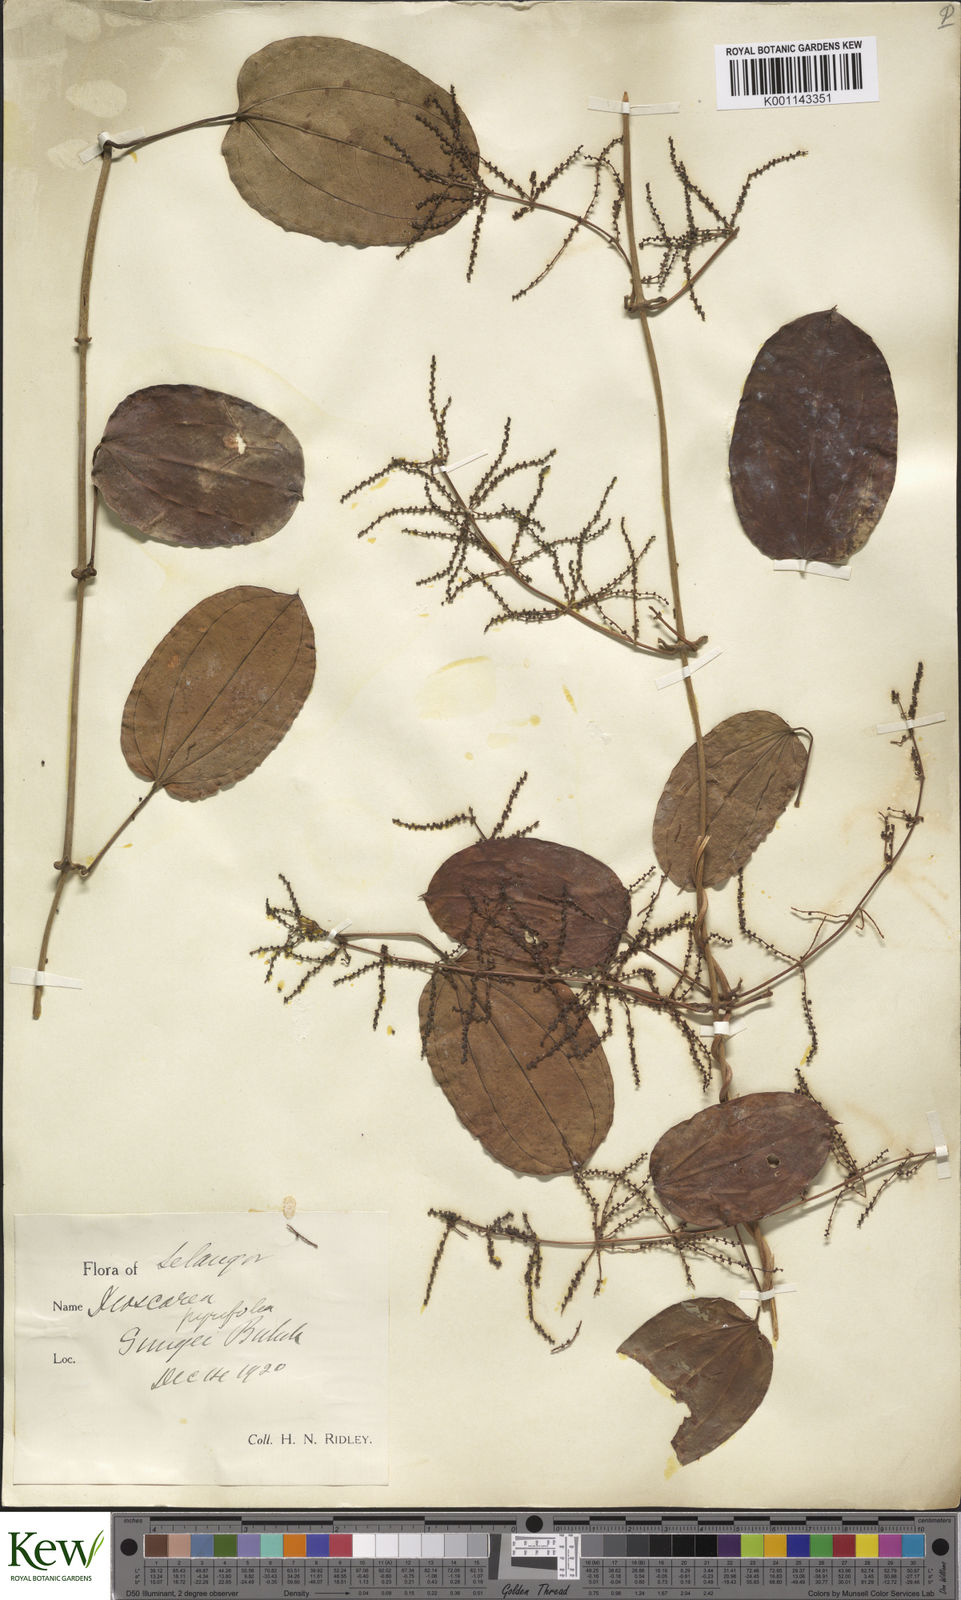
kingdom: Plantae
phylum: Tracheophyta
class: Liliopsida
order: Dioscoreales
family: Dioscoreaceae
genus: Dioscorea
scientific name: Dioscorea pyrifolia
